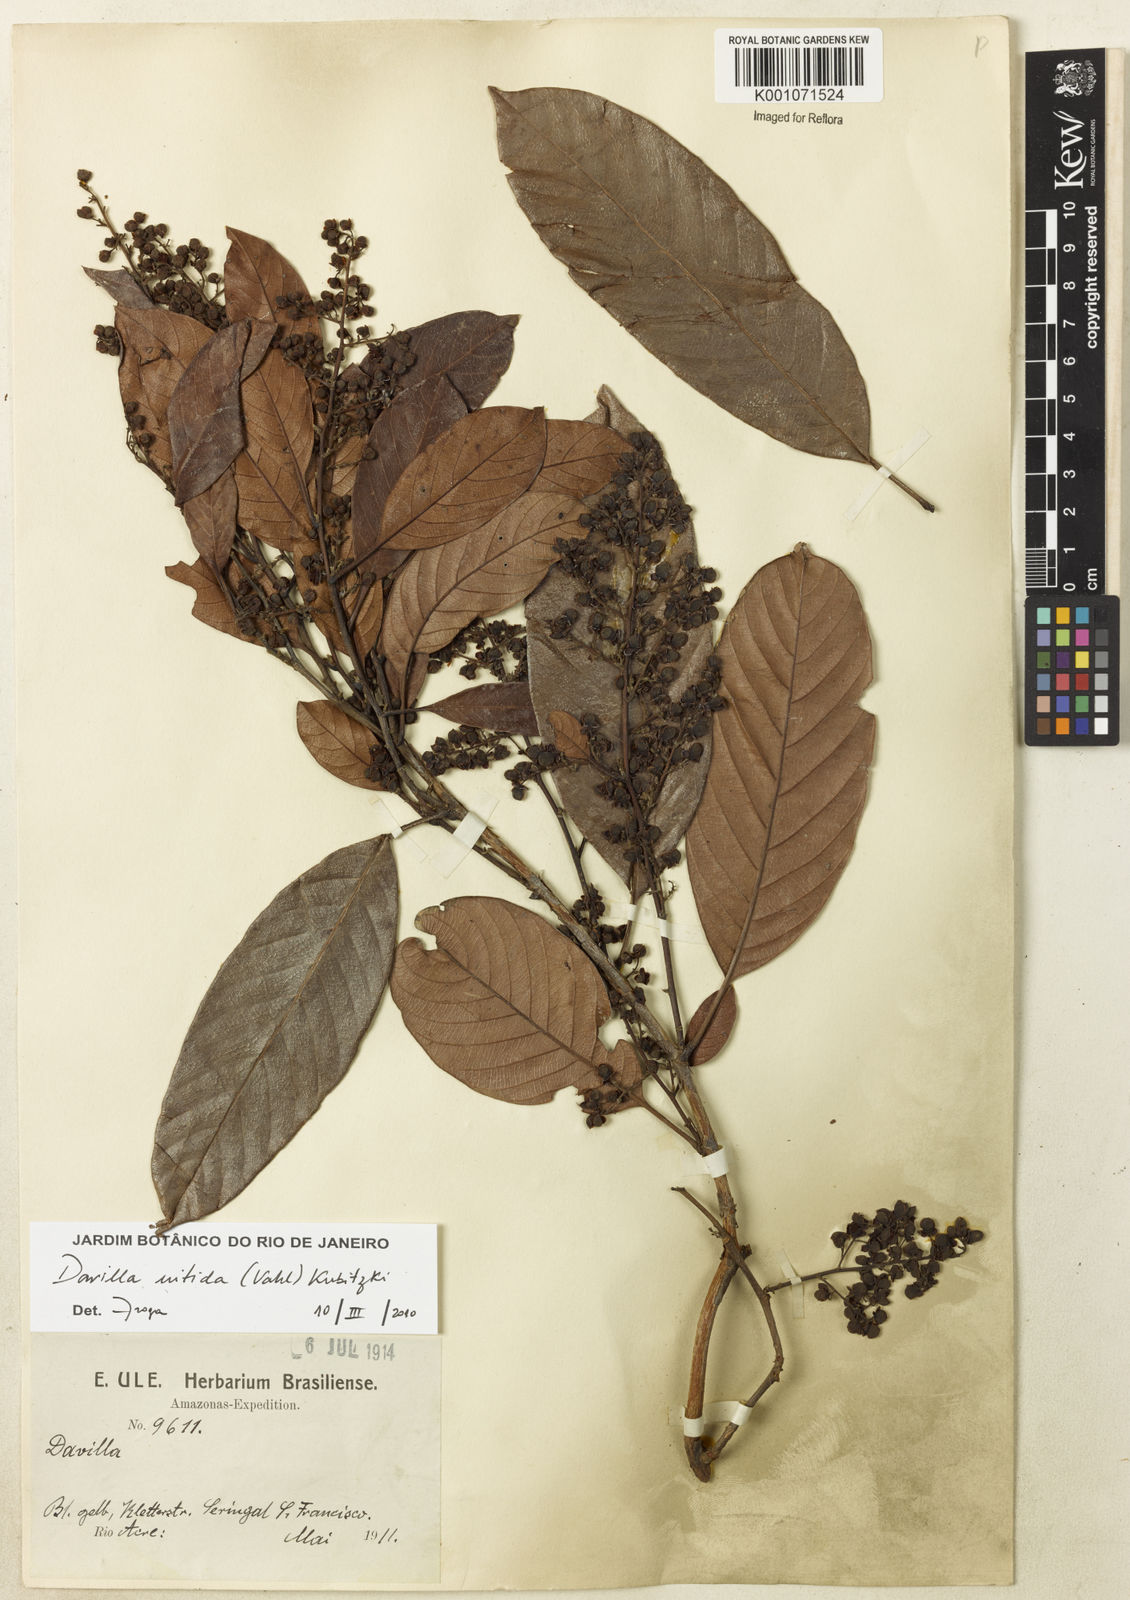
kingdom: Plantae
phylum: Tracheophyta
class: Magnoliopsida
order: Dilleniales
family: Dilleniaceae
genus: Davilla
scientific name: Davilla nitida
